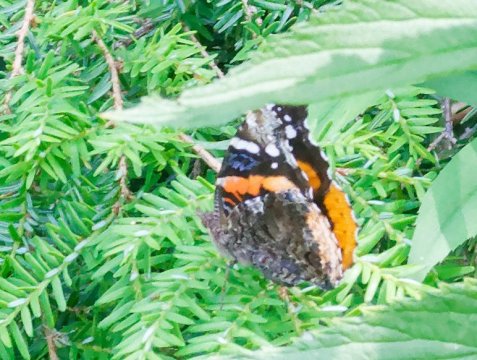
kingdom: Animalia
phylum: Arthropoda
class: Insecta
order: Lepidoptera
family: Nymphalidae
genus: Vanessa
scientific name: Vanessa atalanta
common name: Red Admiral
